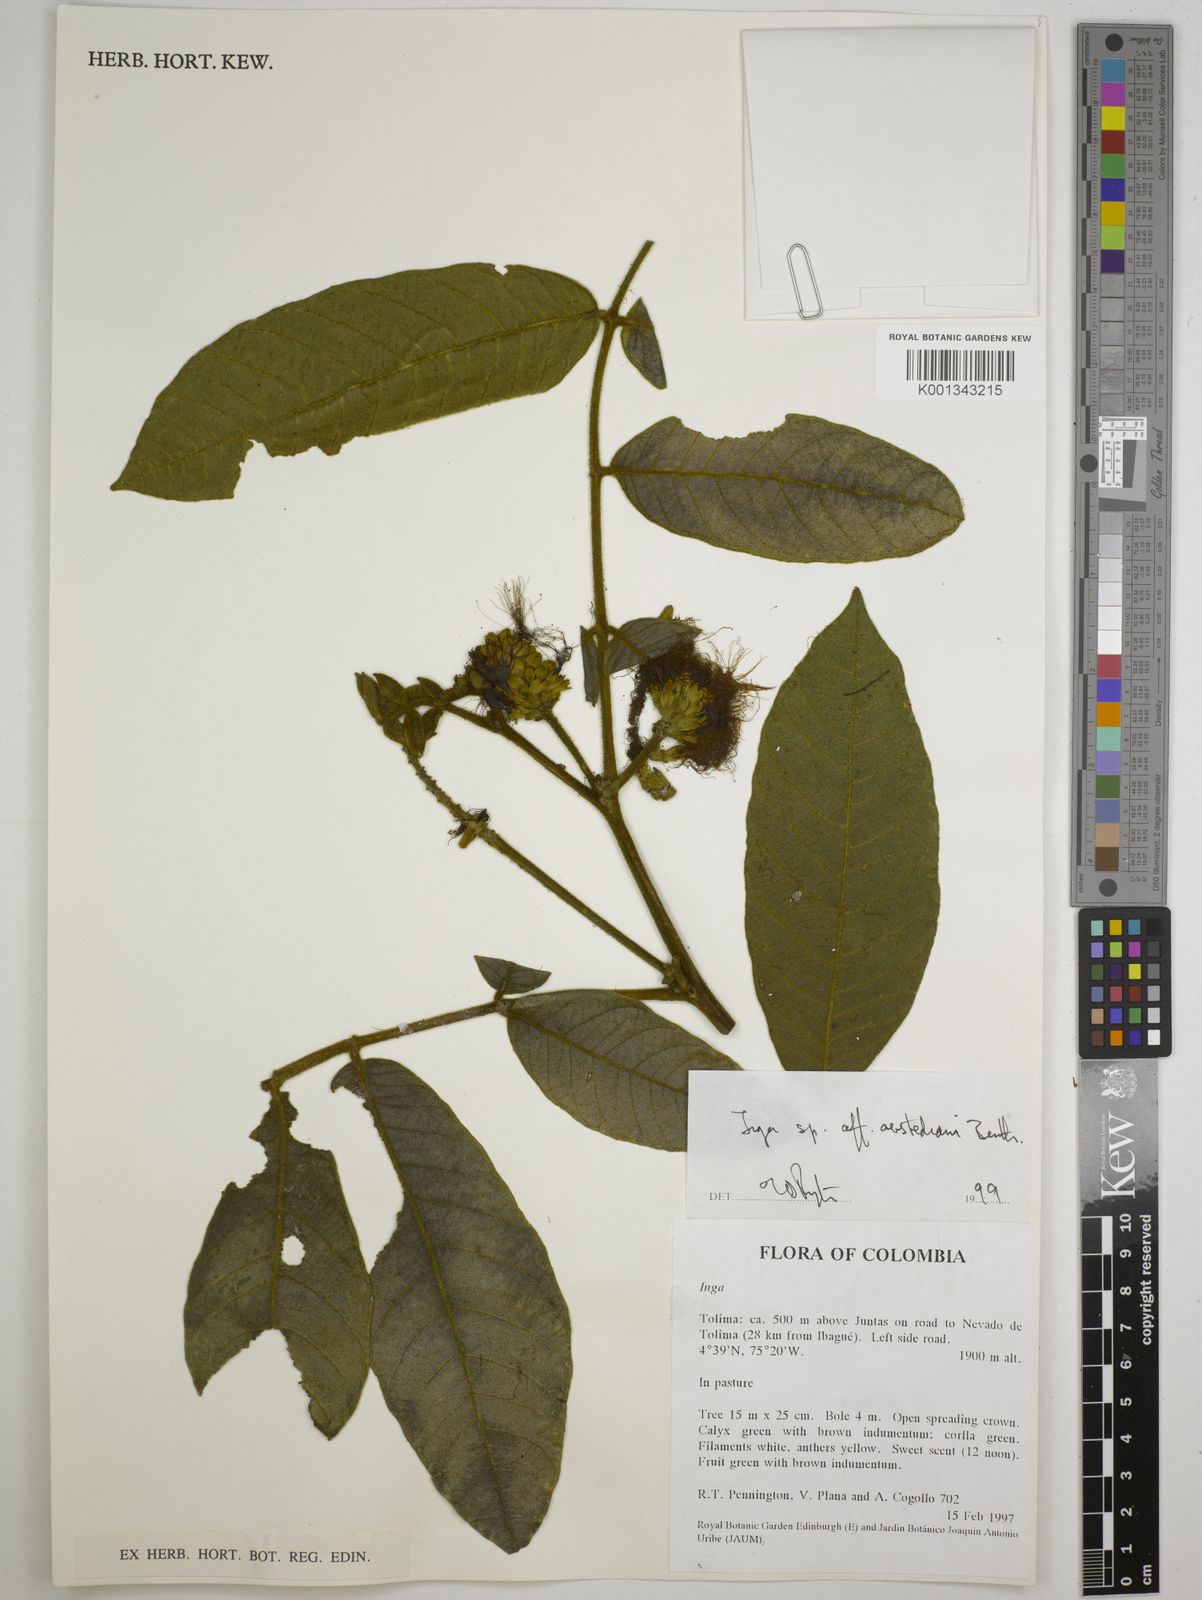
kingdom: Plantae
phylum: Tracheophyta
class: Magnoliopsida
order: Fabales
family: Fabaceae
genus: Inga
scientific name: Inga oerstediana
